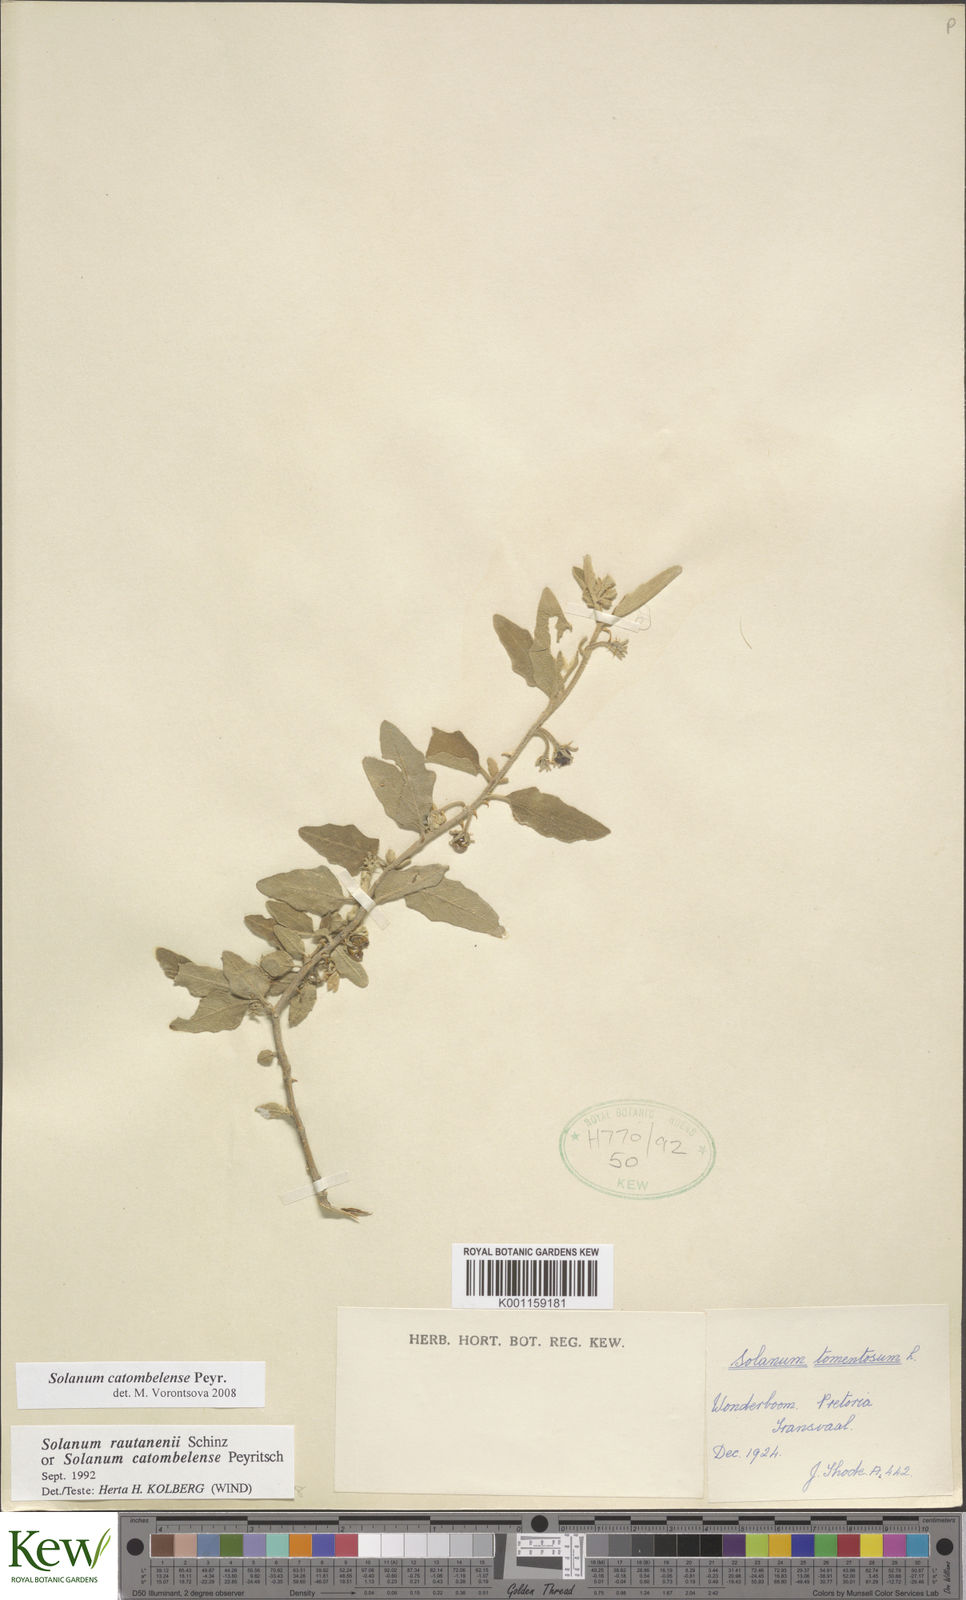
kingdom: Plantae
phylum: Tracheophyta
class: Magnoliopsida
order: Solanales
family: Solanaceae
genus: Solanum
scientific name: Solanum catombelense
